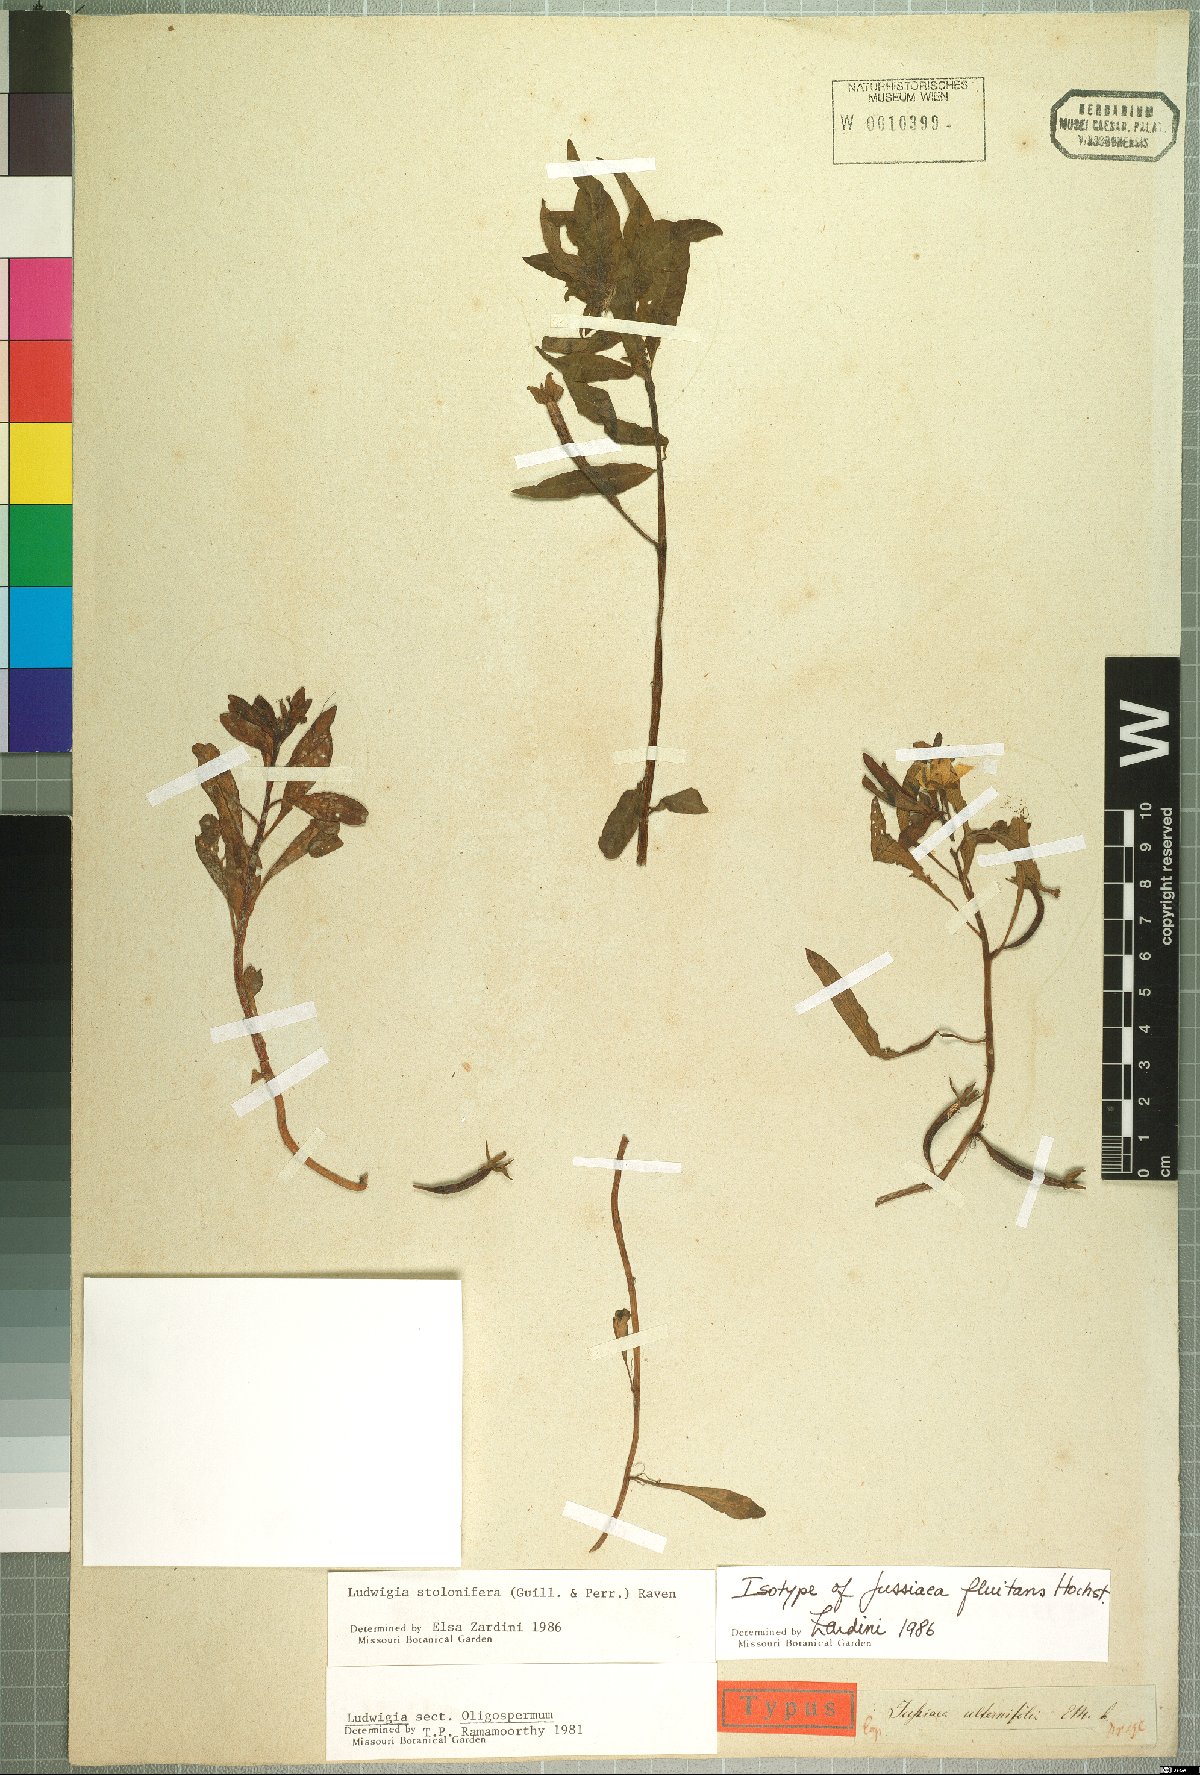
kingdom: Plantae
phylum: Tracheophyta
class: Magnoliopsida
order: Myrtales
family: Onagraceae
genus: Ludwigia
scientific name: Ludwigia adscendens
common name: Creeping water primrose
